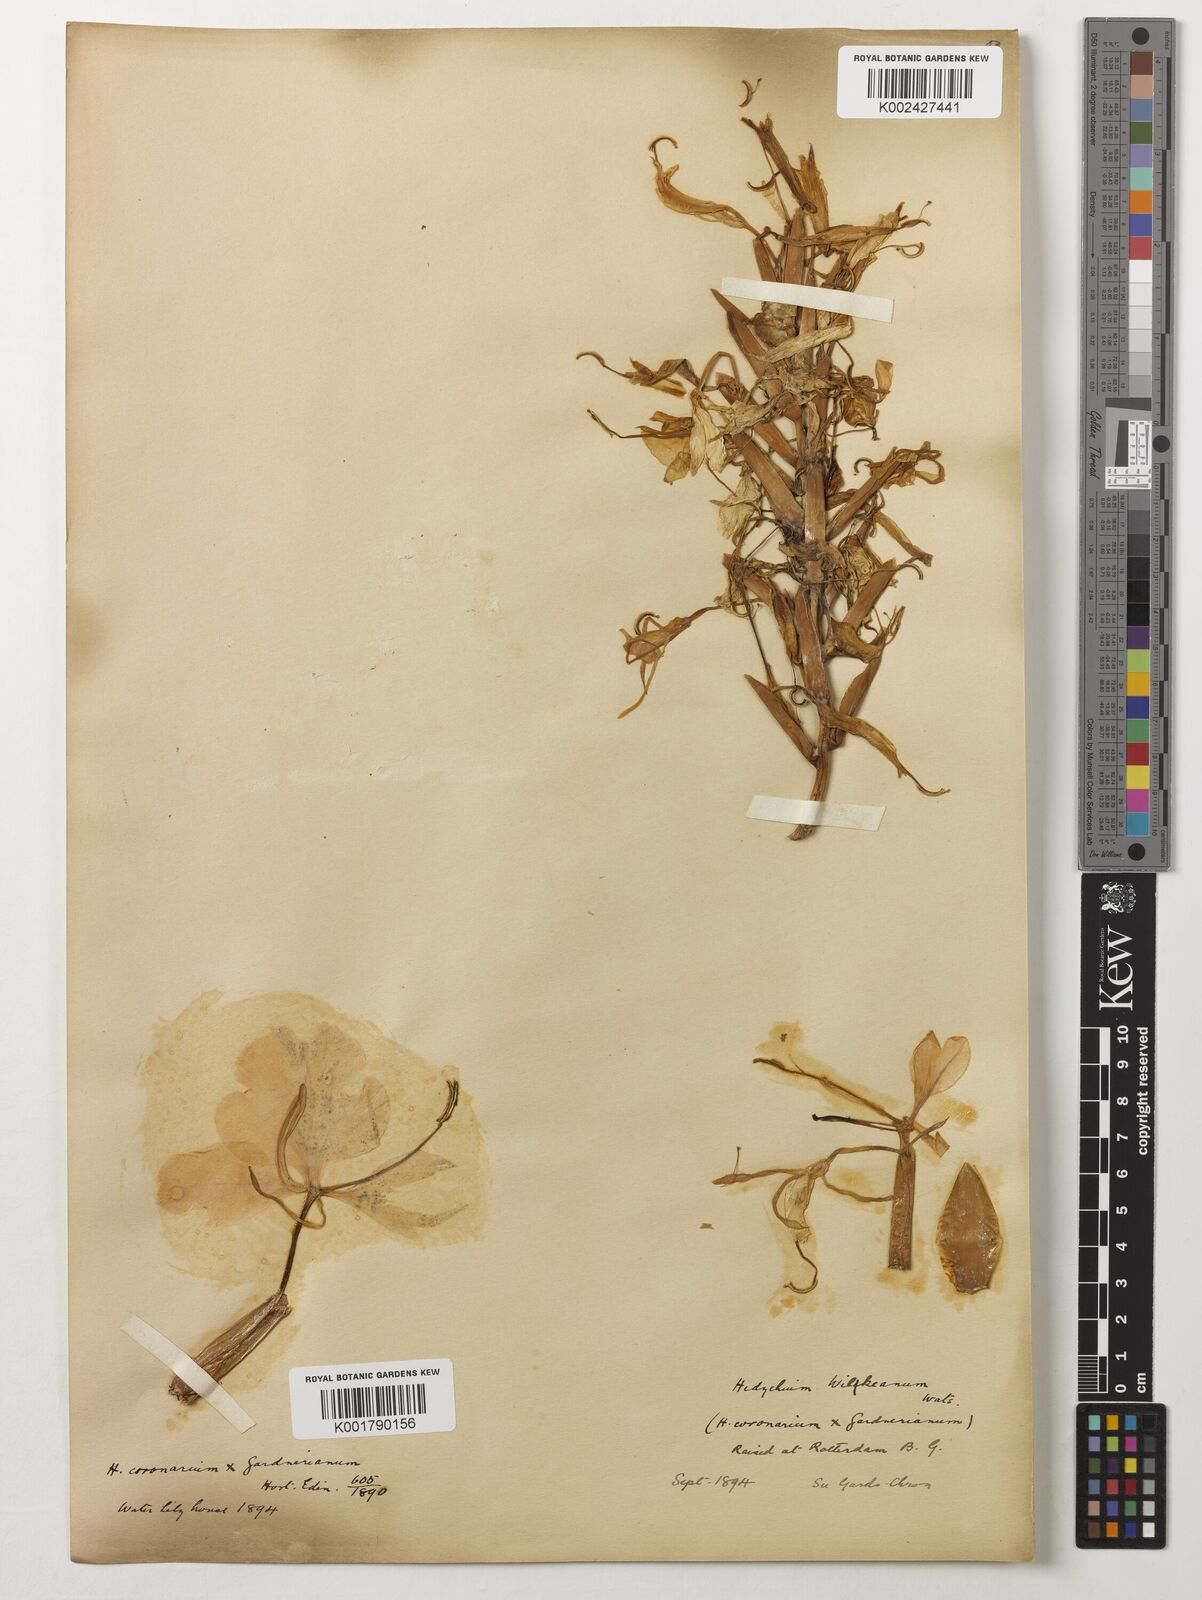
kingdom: Plantae
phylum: Tracheophyta
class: Liliopsida
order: Zingiberales
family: Zingiberaceae
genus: Hedychium
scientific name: Hedychium wilkeanum
